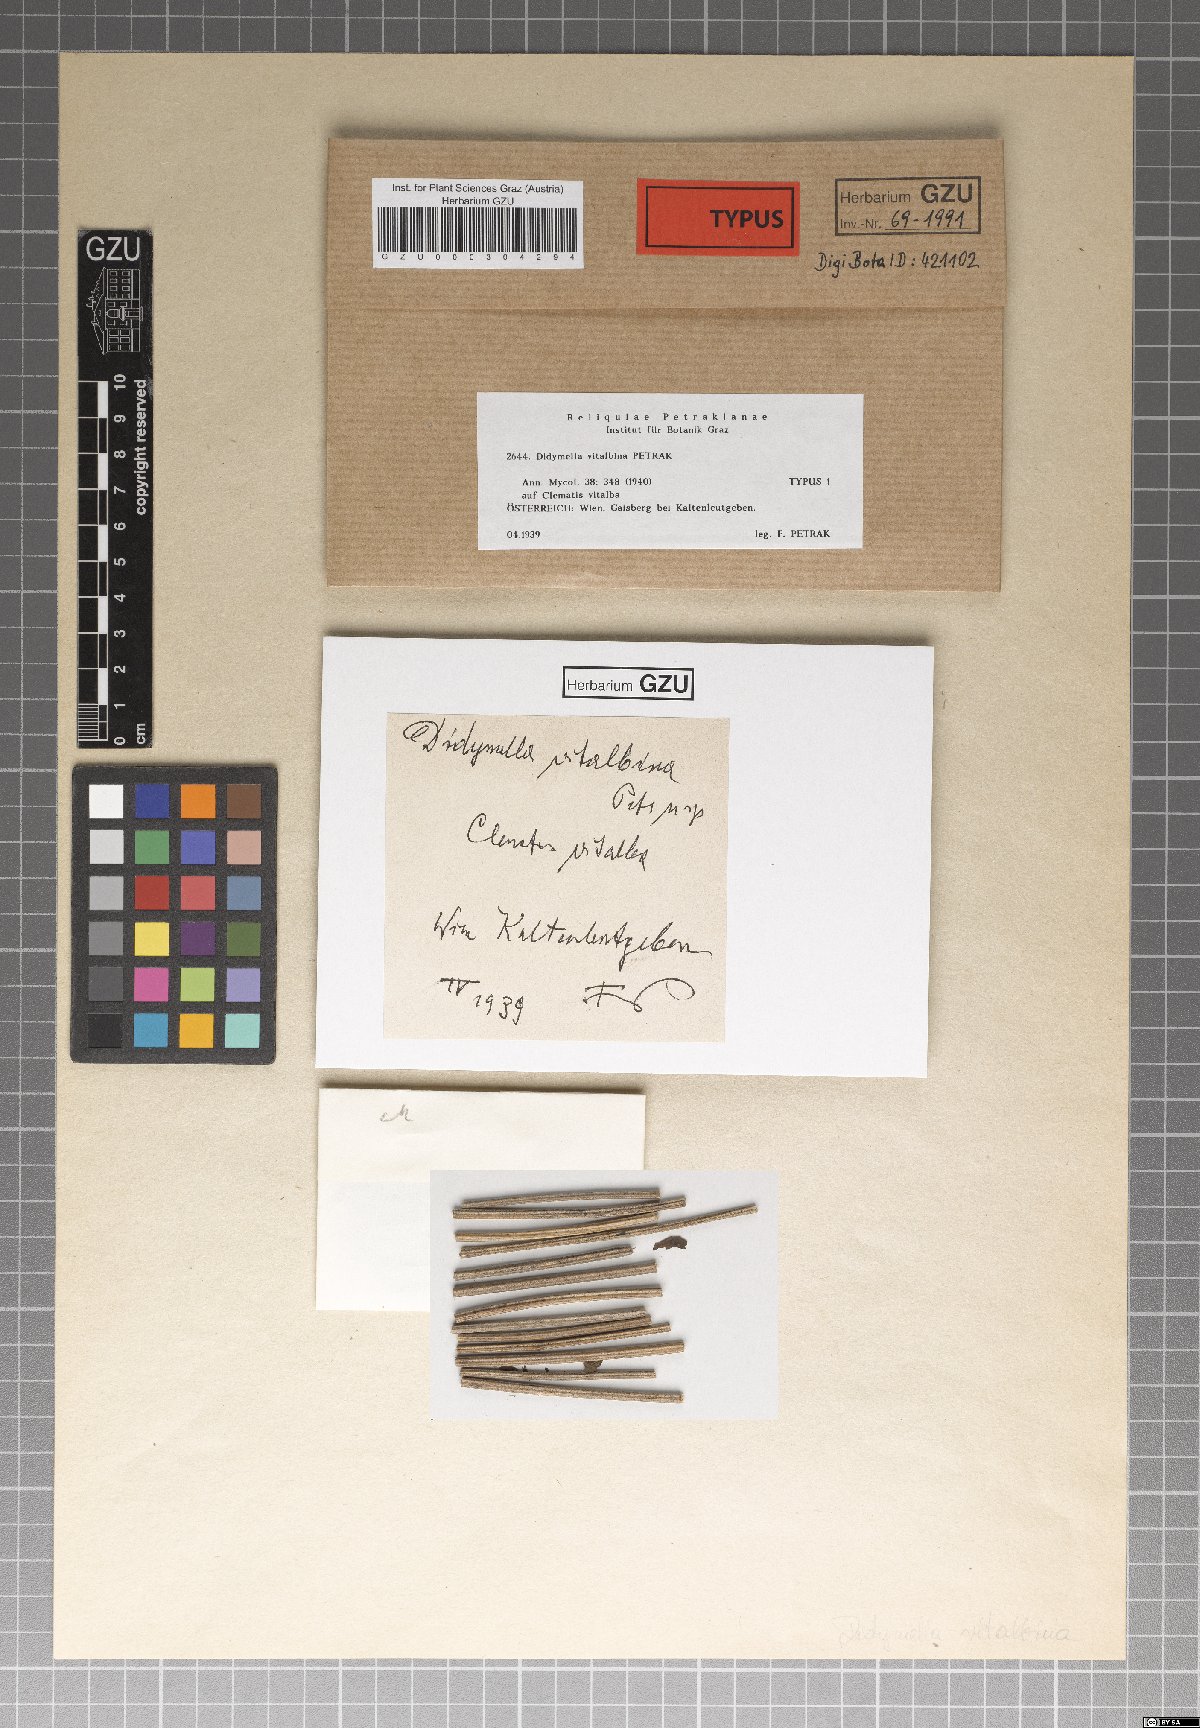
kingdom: Fungi
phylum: Ascomycota
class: Dothideomycetes
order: Pleosporales
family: Didymellaceae
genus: Didymella
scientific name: Didymella vitalbina
